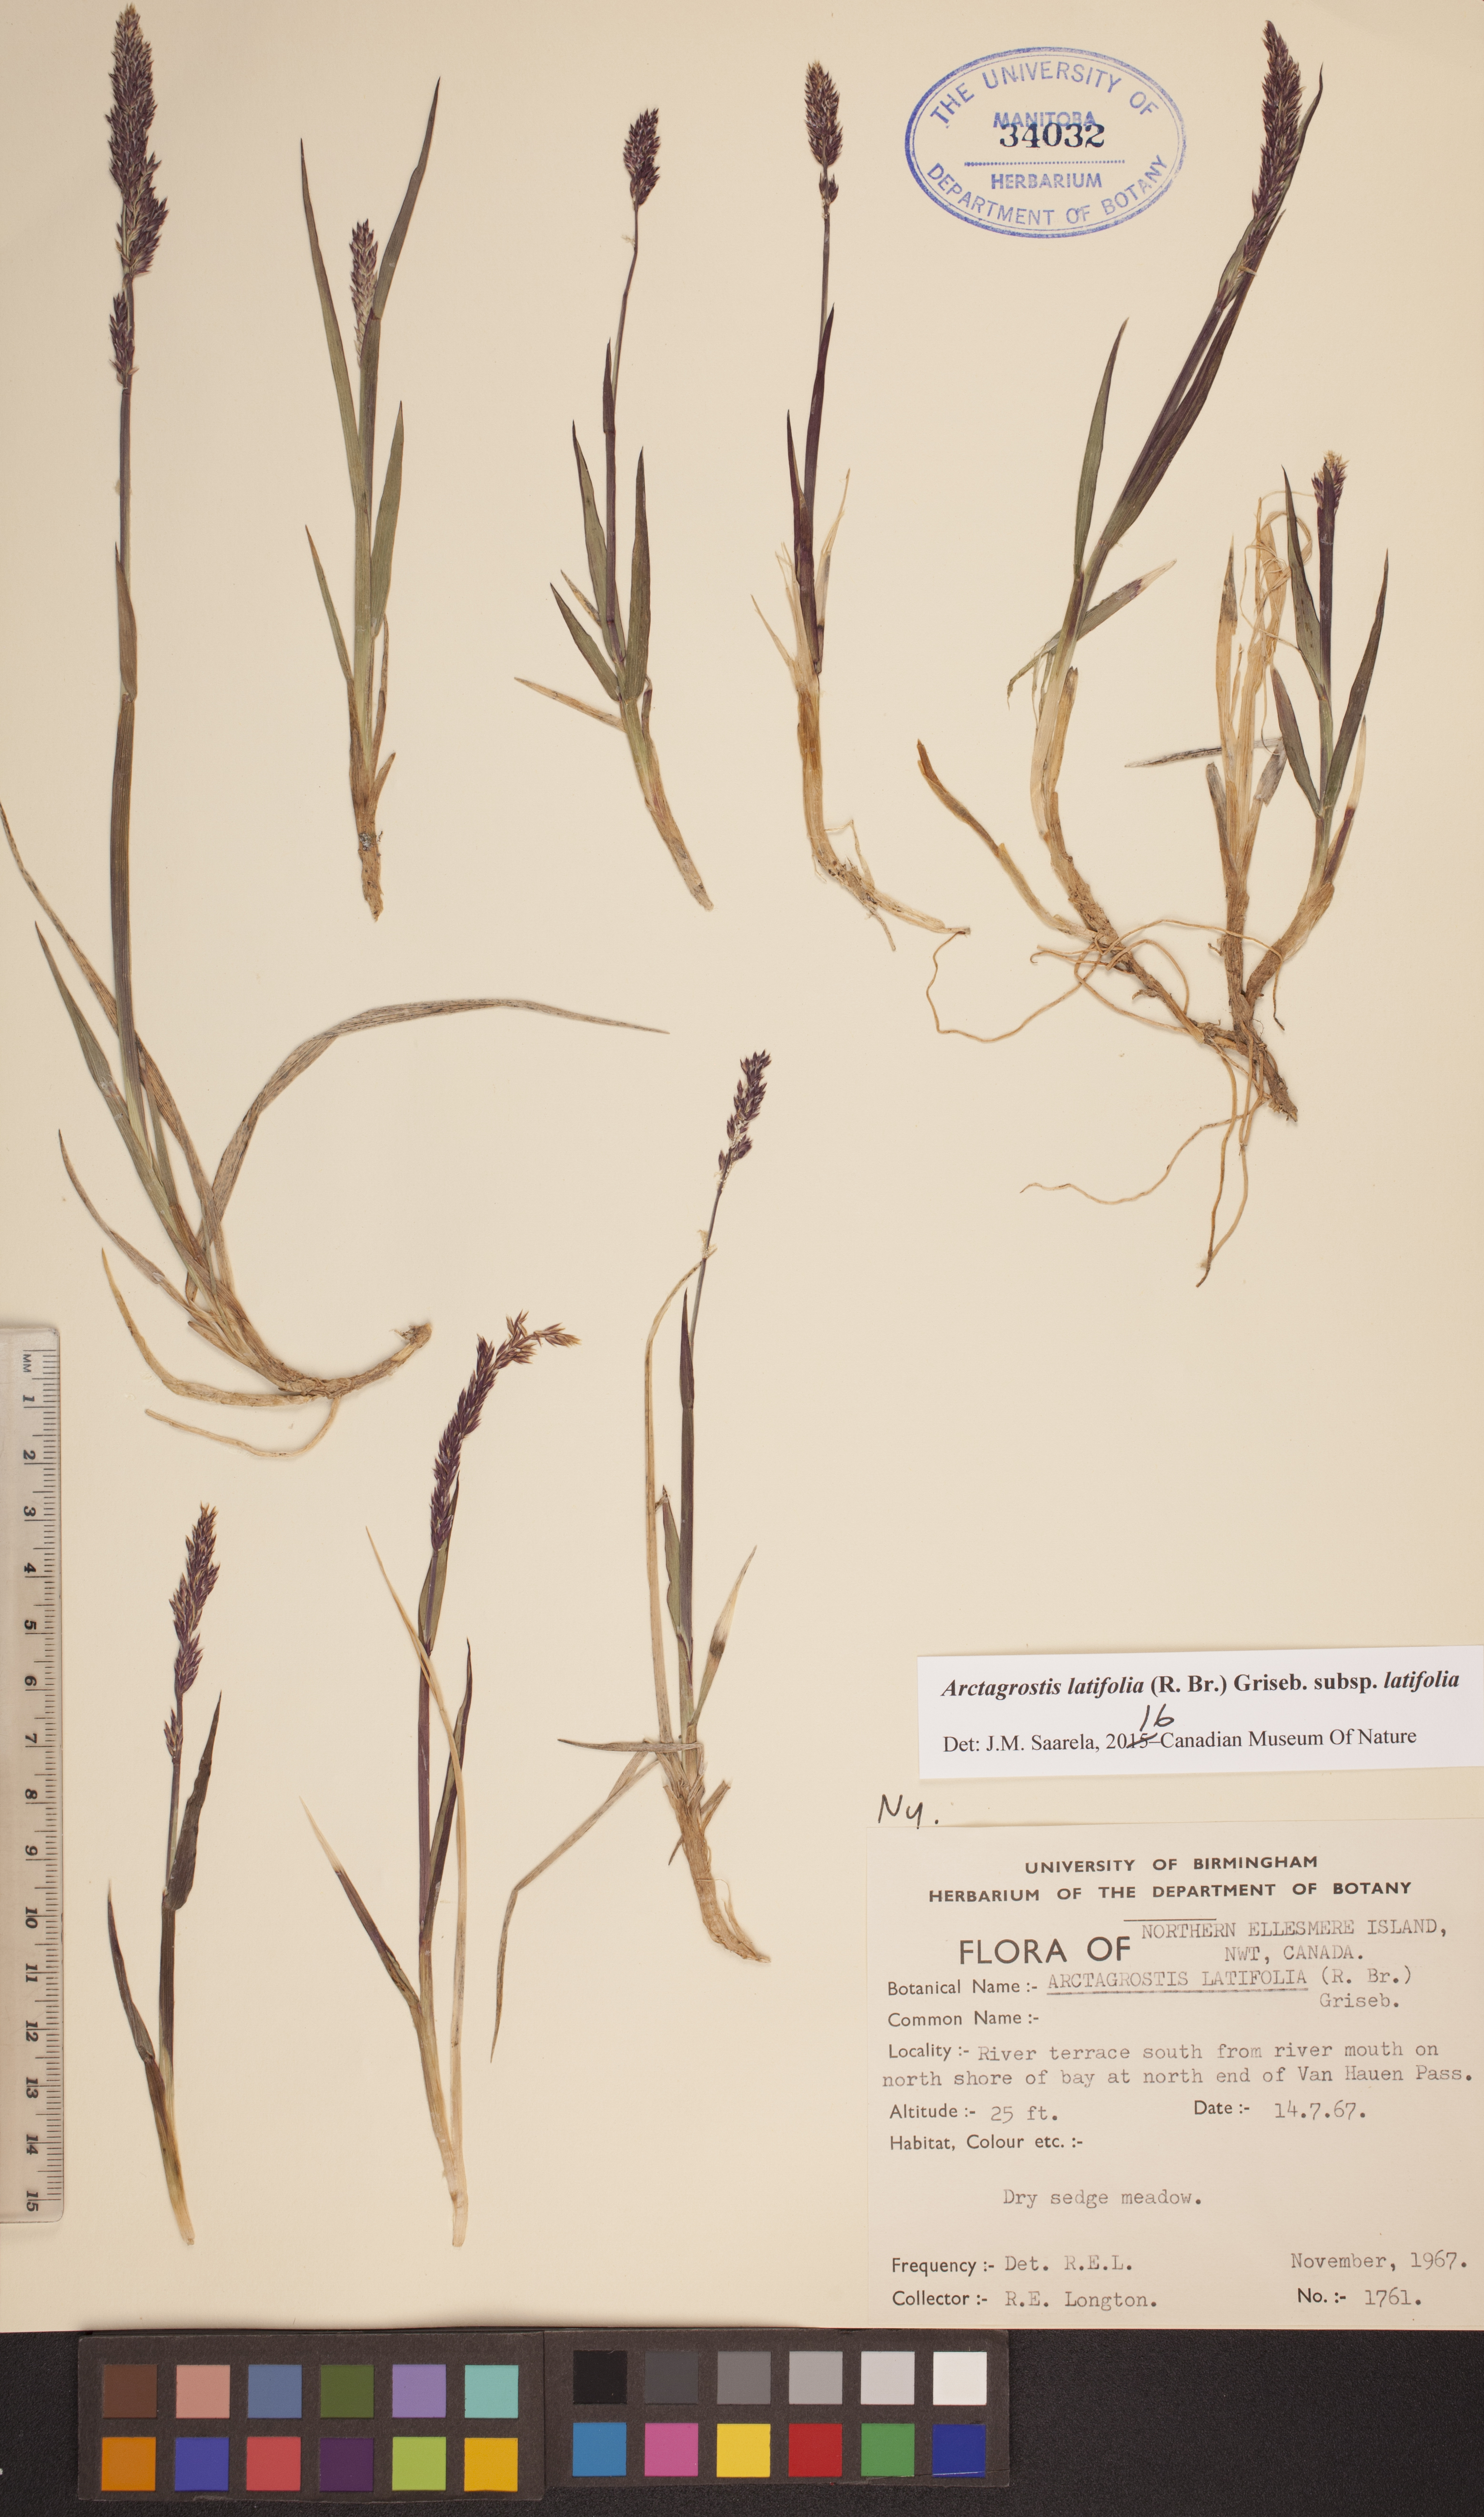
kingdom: Plantae
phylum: Tracheophyta
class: Liliopsida
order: Poales
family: Poaceae
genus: Arctagrostis
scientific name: Arctagrostis latifolia
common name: Arctic grass
